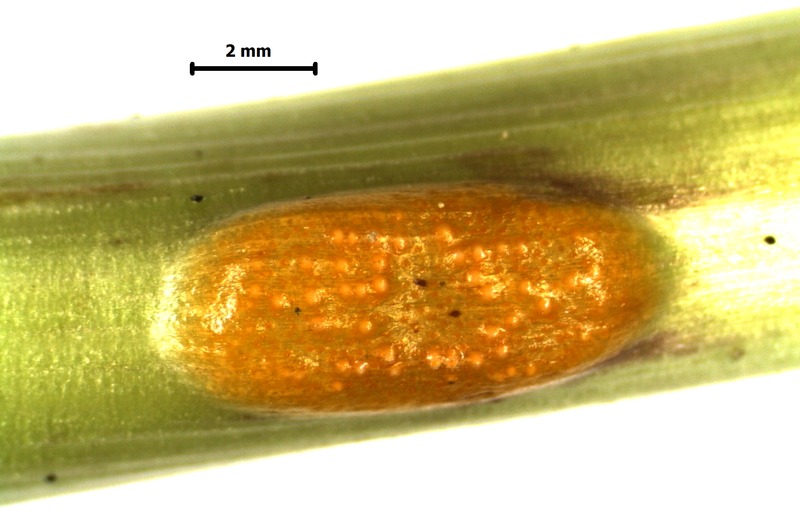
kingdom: Fungi
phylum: Basidiomycota
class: Pucciniomycetes
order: Pucciniales
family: Pucciniaceae
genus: Puccinia
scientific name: Puccinia dioicae
